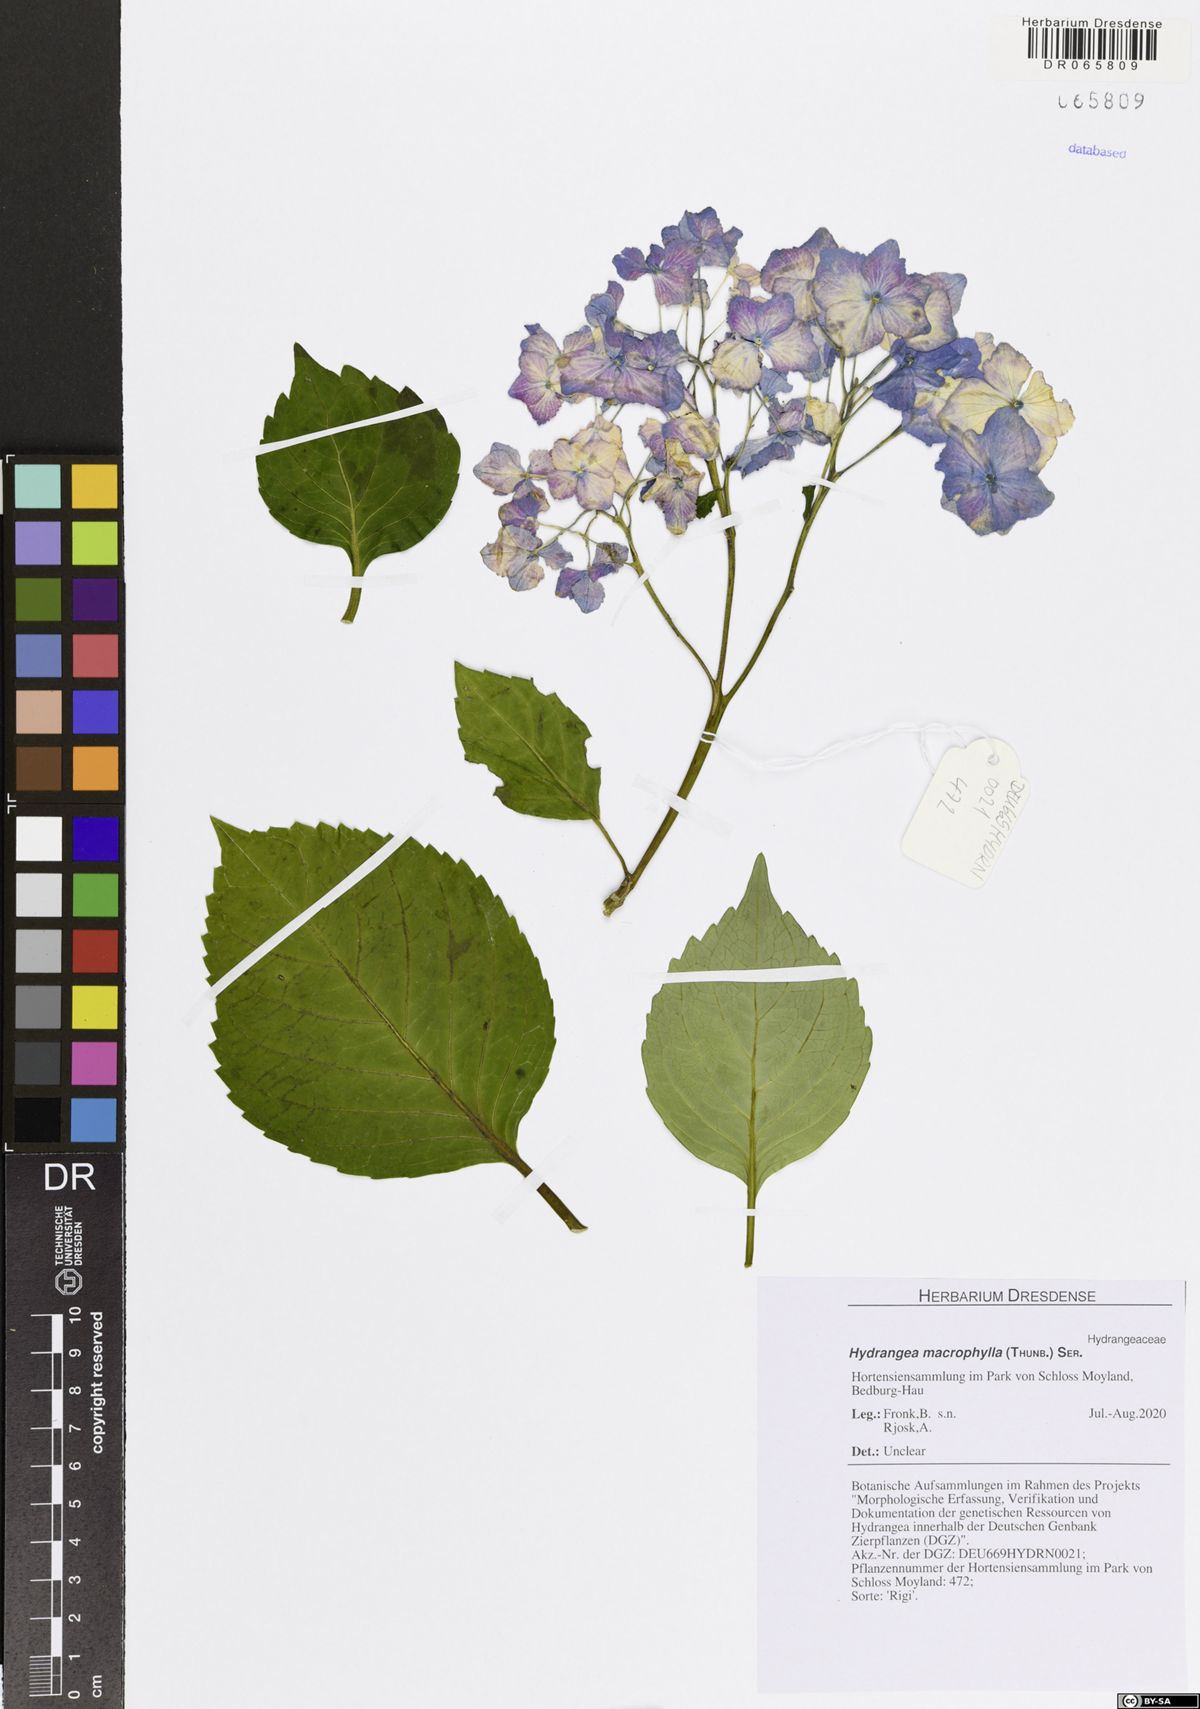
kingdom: Plantae
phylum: Tracheophyta
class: Magnoliopsida
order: Cornales
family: Hydrangeaceae
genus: Hydrangea
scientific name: Hydrangea macrophylla
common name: Hydrangea
